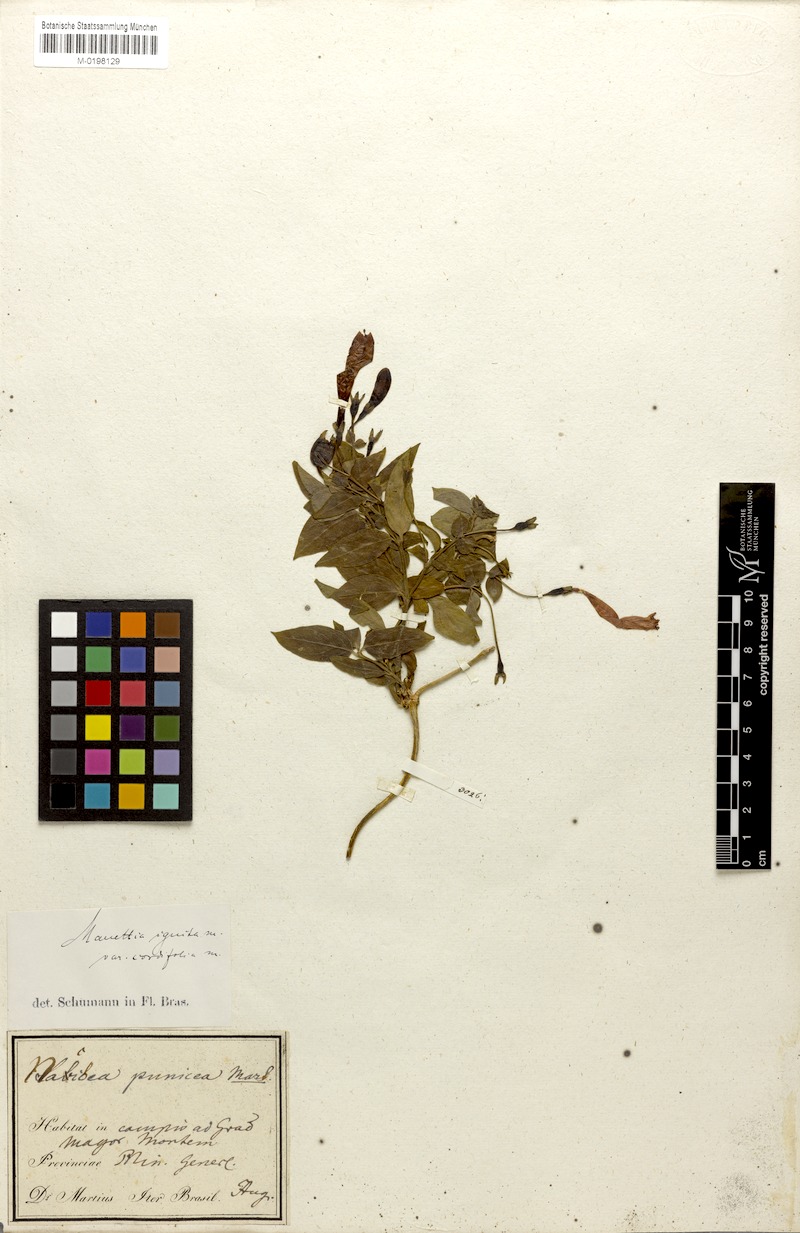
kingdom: Plantae
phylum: Tracheophyta
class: Magnoliopsida
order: Gentianales
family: Rubiaceae
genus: Manettia
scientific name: Manettia cordifolia
